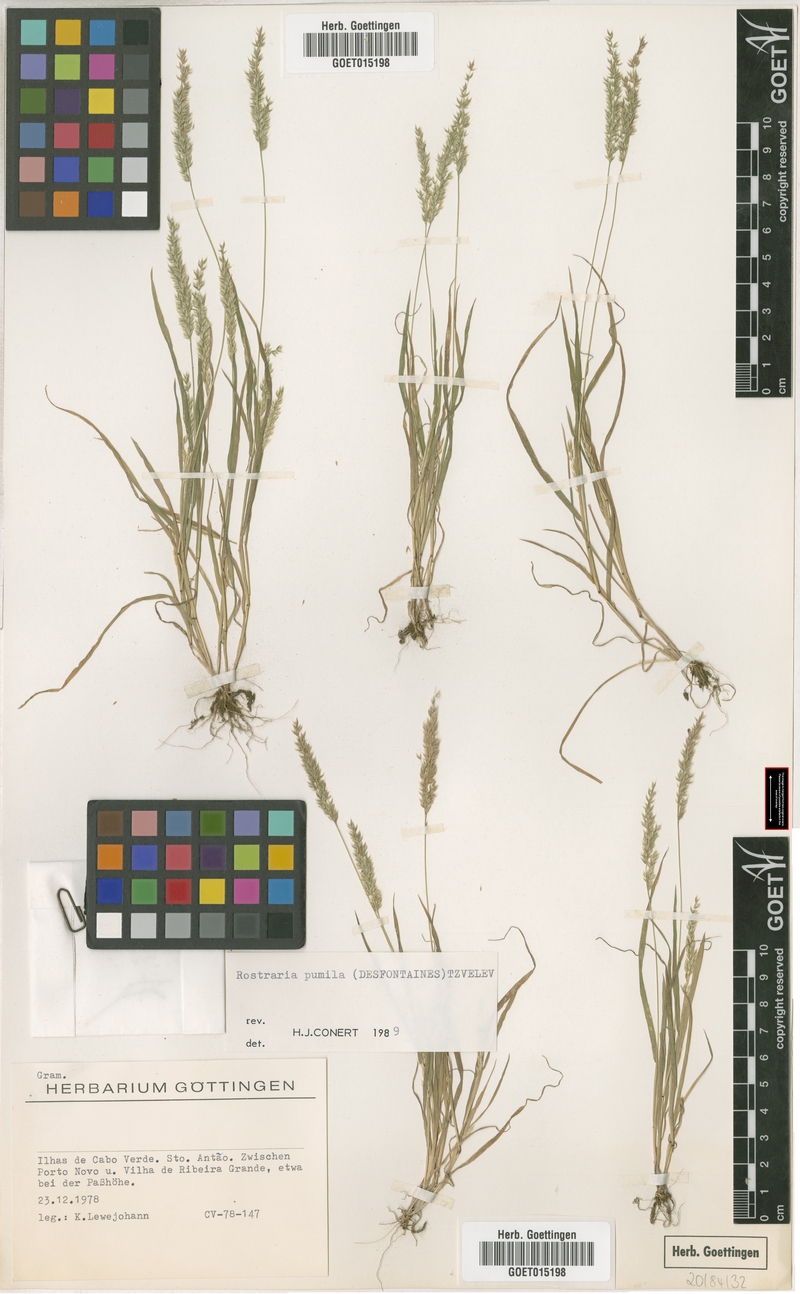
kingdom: Plantae
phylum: Tracheophyta
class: Liliopsida
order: Poales
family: Poaceae
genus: Rostraria
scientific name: Rostraria pumila
